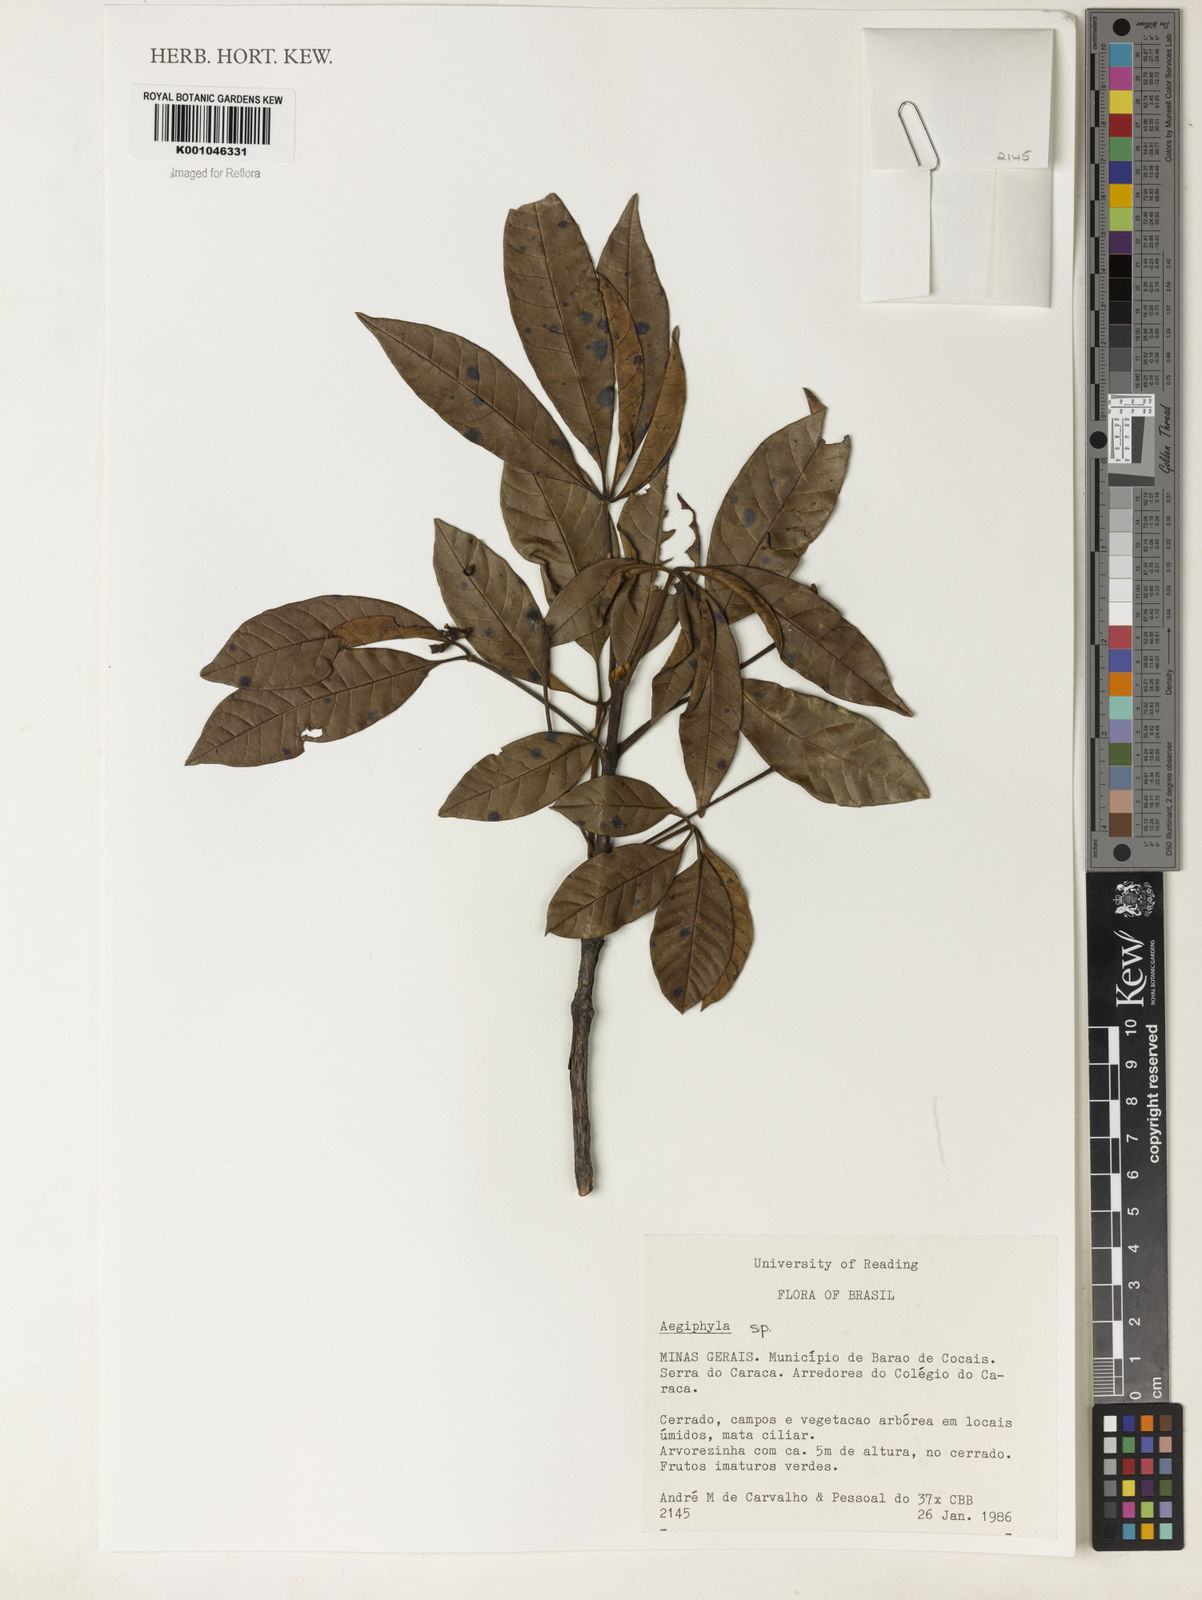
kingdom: Plantae
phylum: Tracheophyta
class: Magnoliopsida
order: Lamiales
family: Acanthaceae
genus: Avicennia
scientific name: Avicennia
